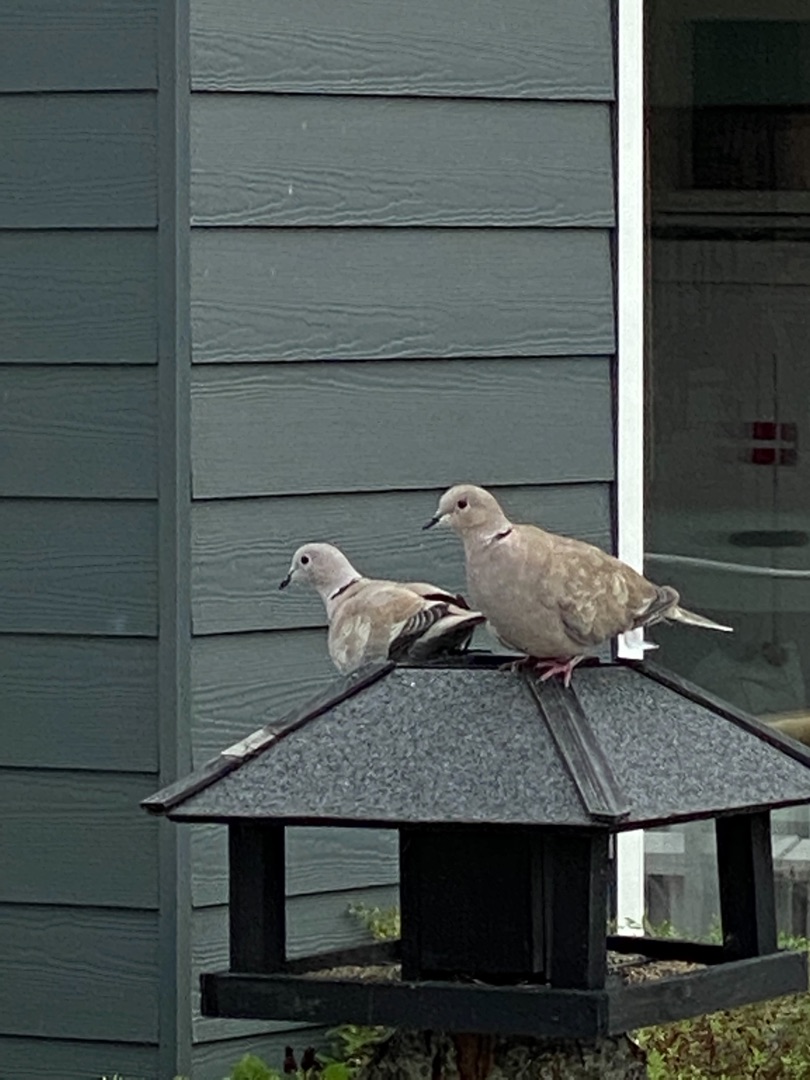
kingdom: Animalia
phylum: Chordata
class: Aves
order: Columbiformes
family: Columbidae
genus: Streptopelia
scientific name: Streptopelia decaocto
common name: Tyrkerdue
